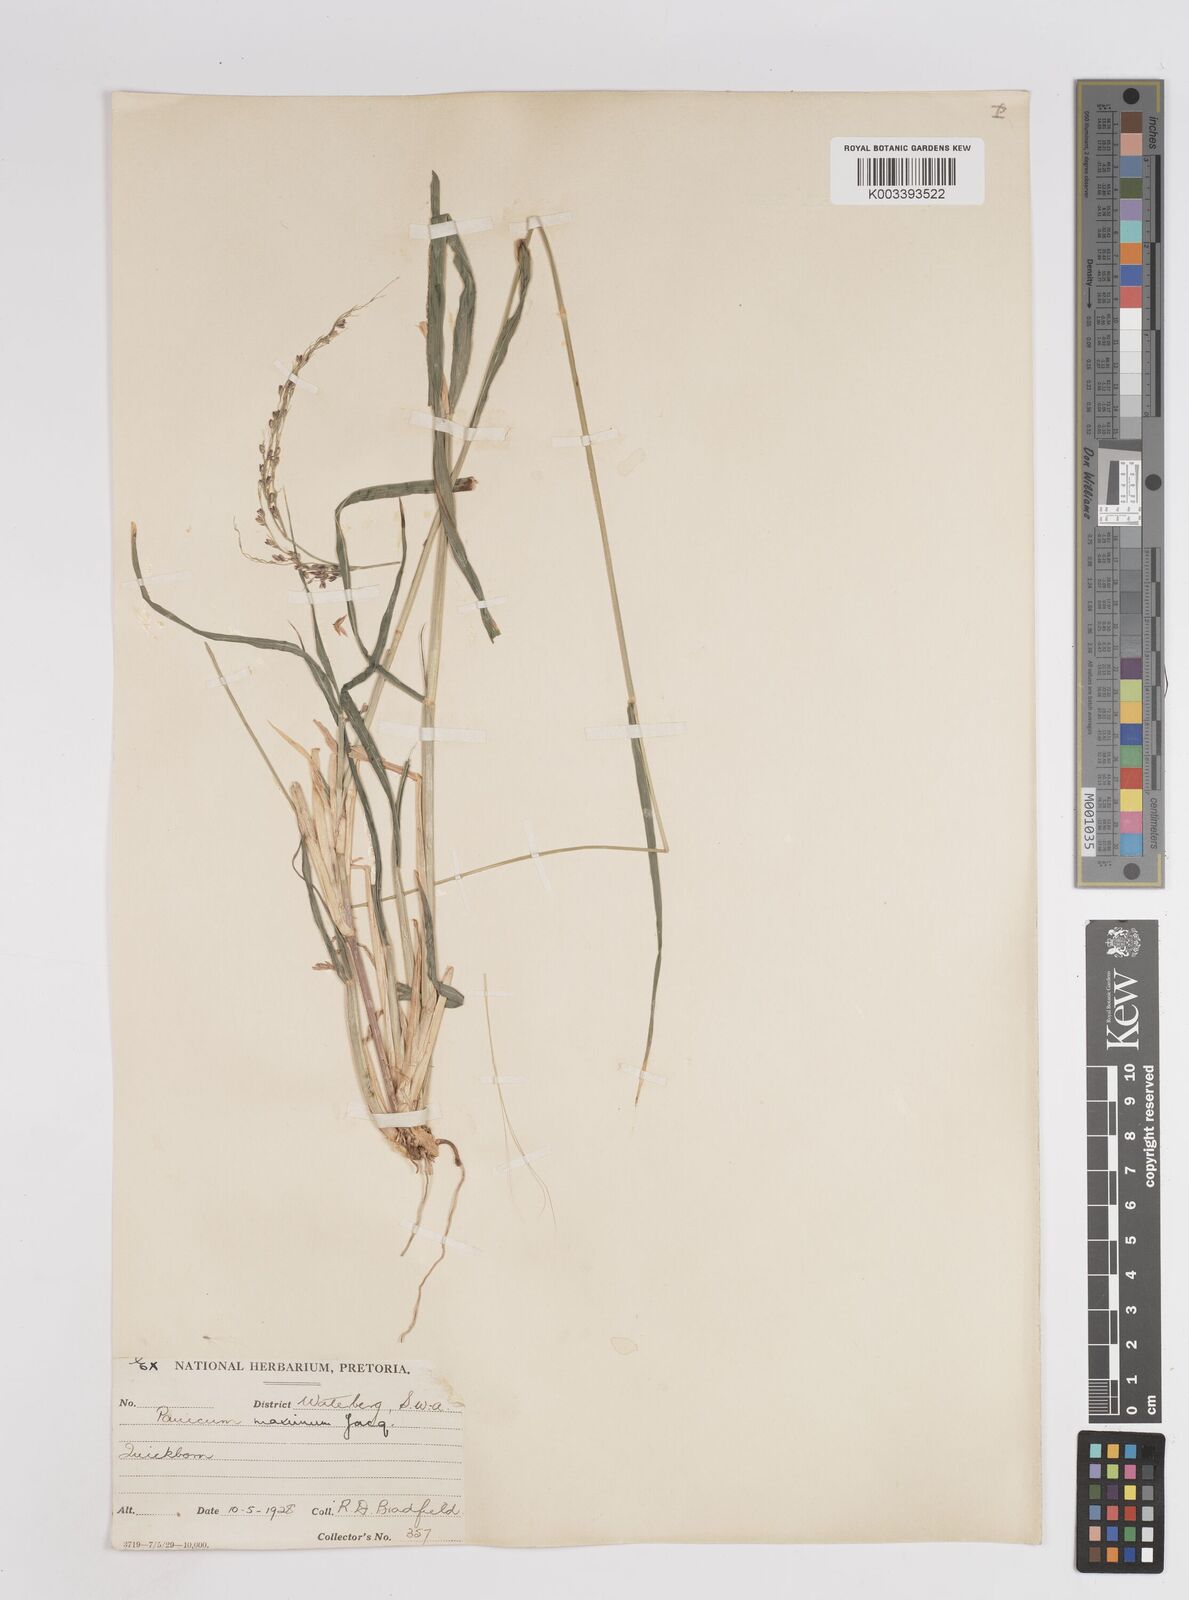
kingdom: Plantae
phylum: Tracheophyta
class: Liliopsida
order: Poales
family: Poaceae
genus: Megathyrsus
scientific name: Megathyrsus maximus
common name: Guineagrass
